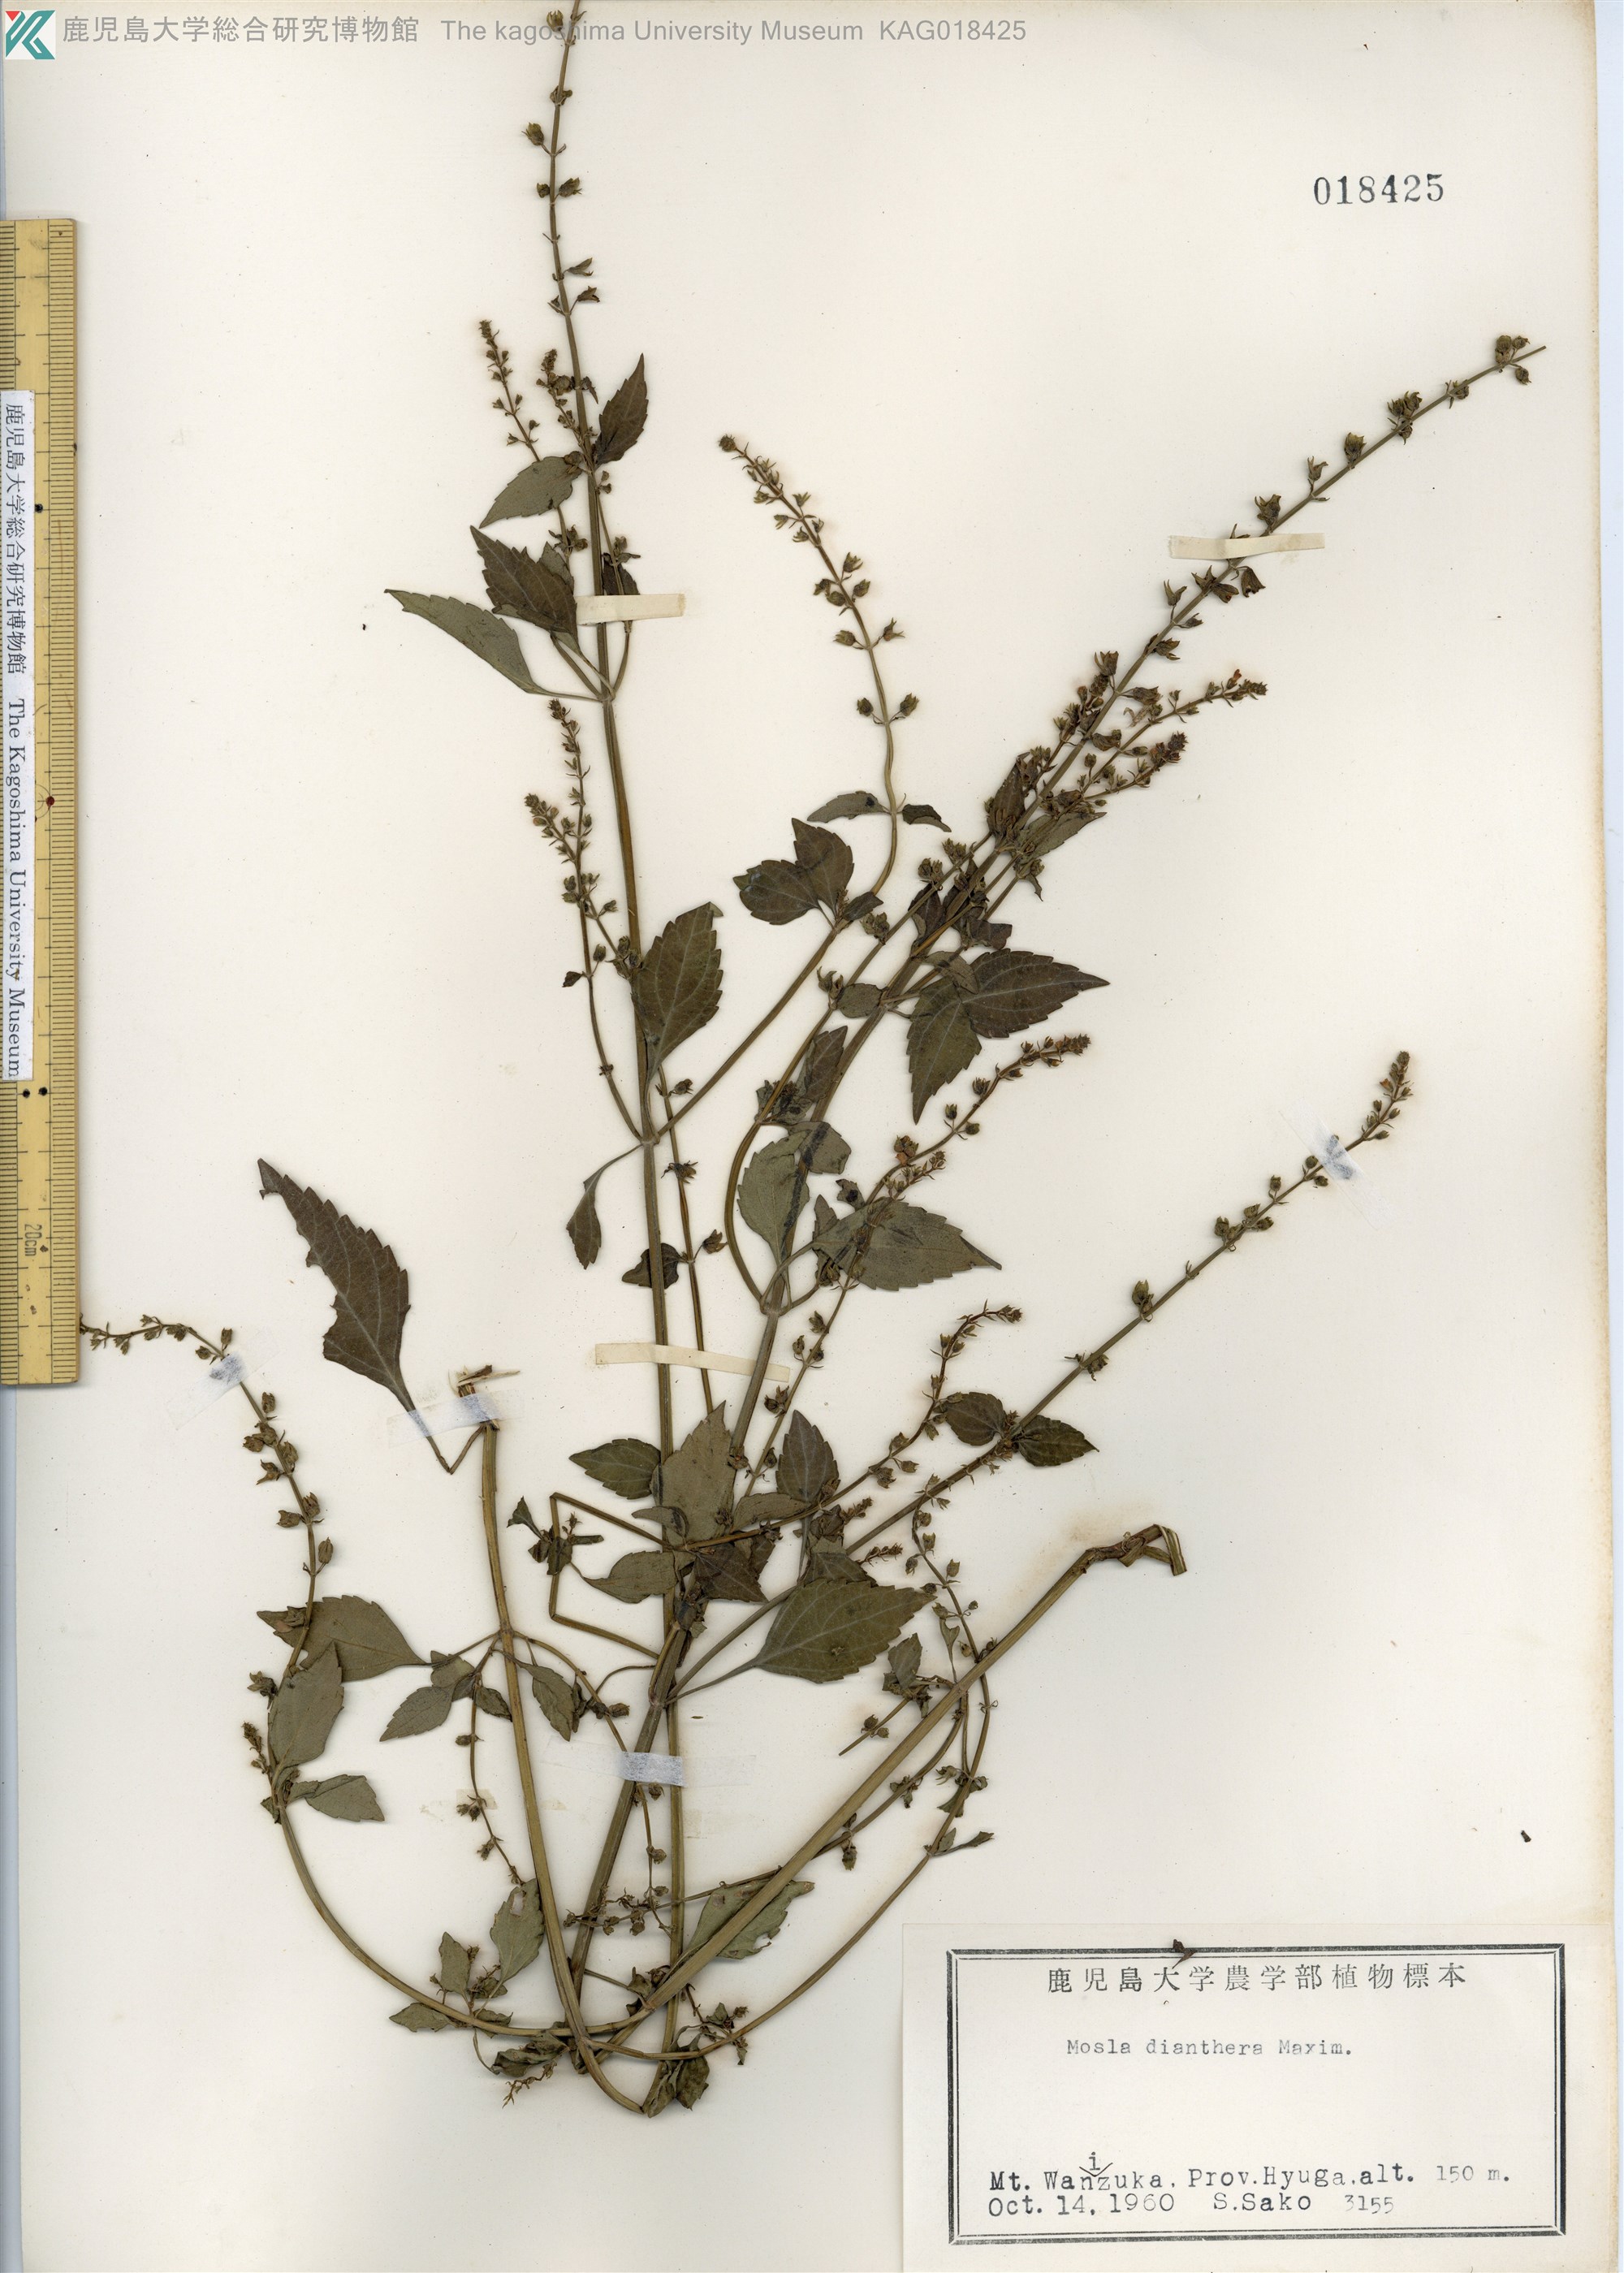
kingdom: Plantae
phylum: Tracheophyta
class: Magnoliopsida
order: Lamiales
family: Lamiaceae
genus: Mosla
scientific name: Mosla dianthera
